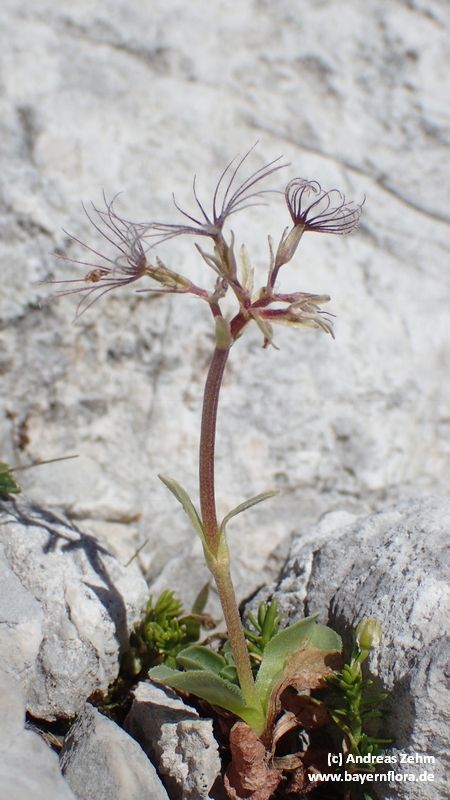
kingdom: Plantae
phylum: Tracheophyta
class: Magnoliopsida
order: Dipsacales
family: Caprifoliaceae
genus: Valeriana
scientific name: Valeriana supina
